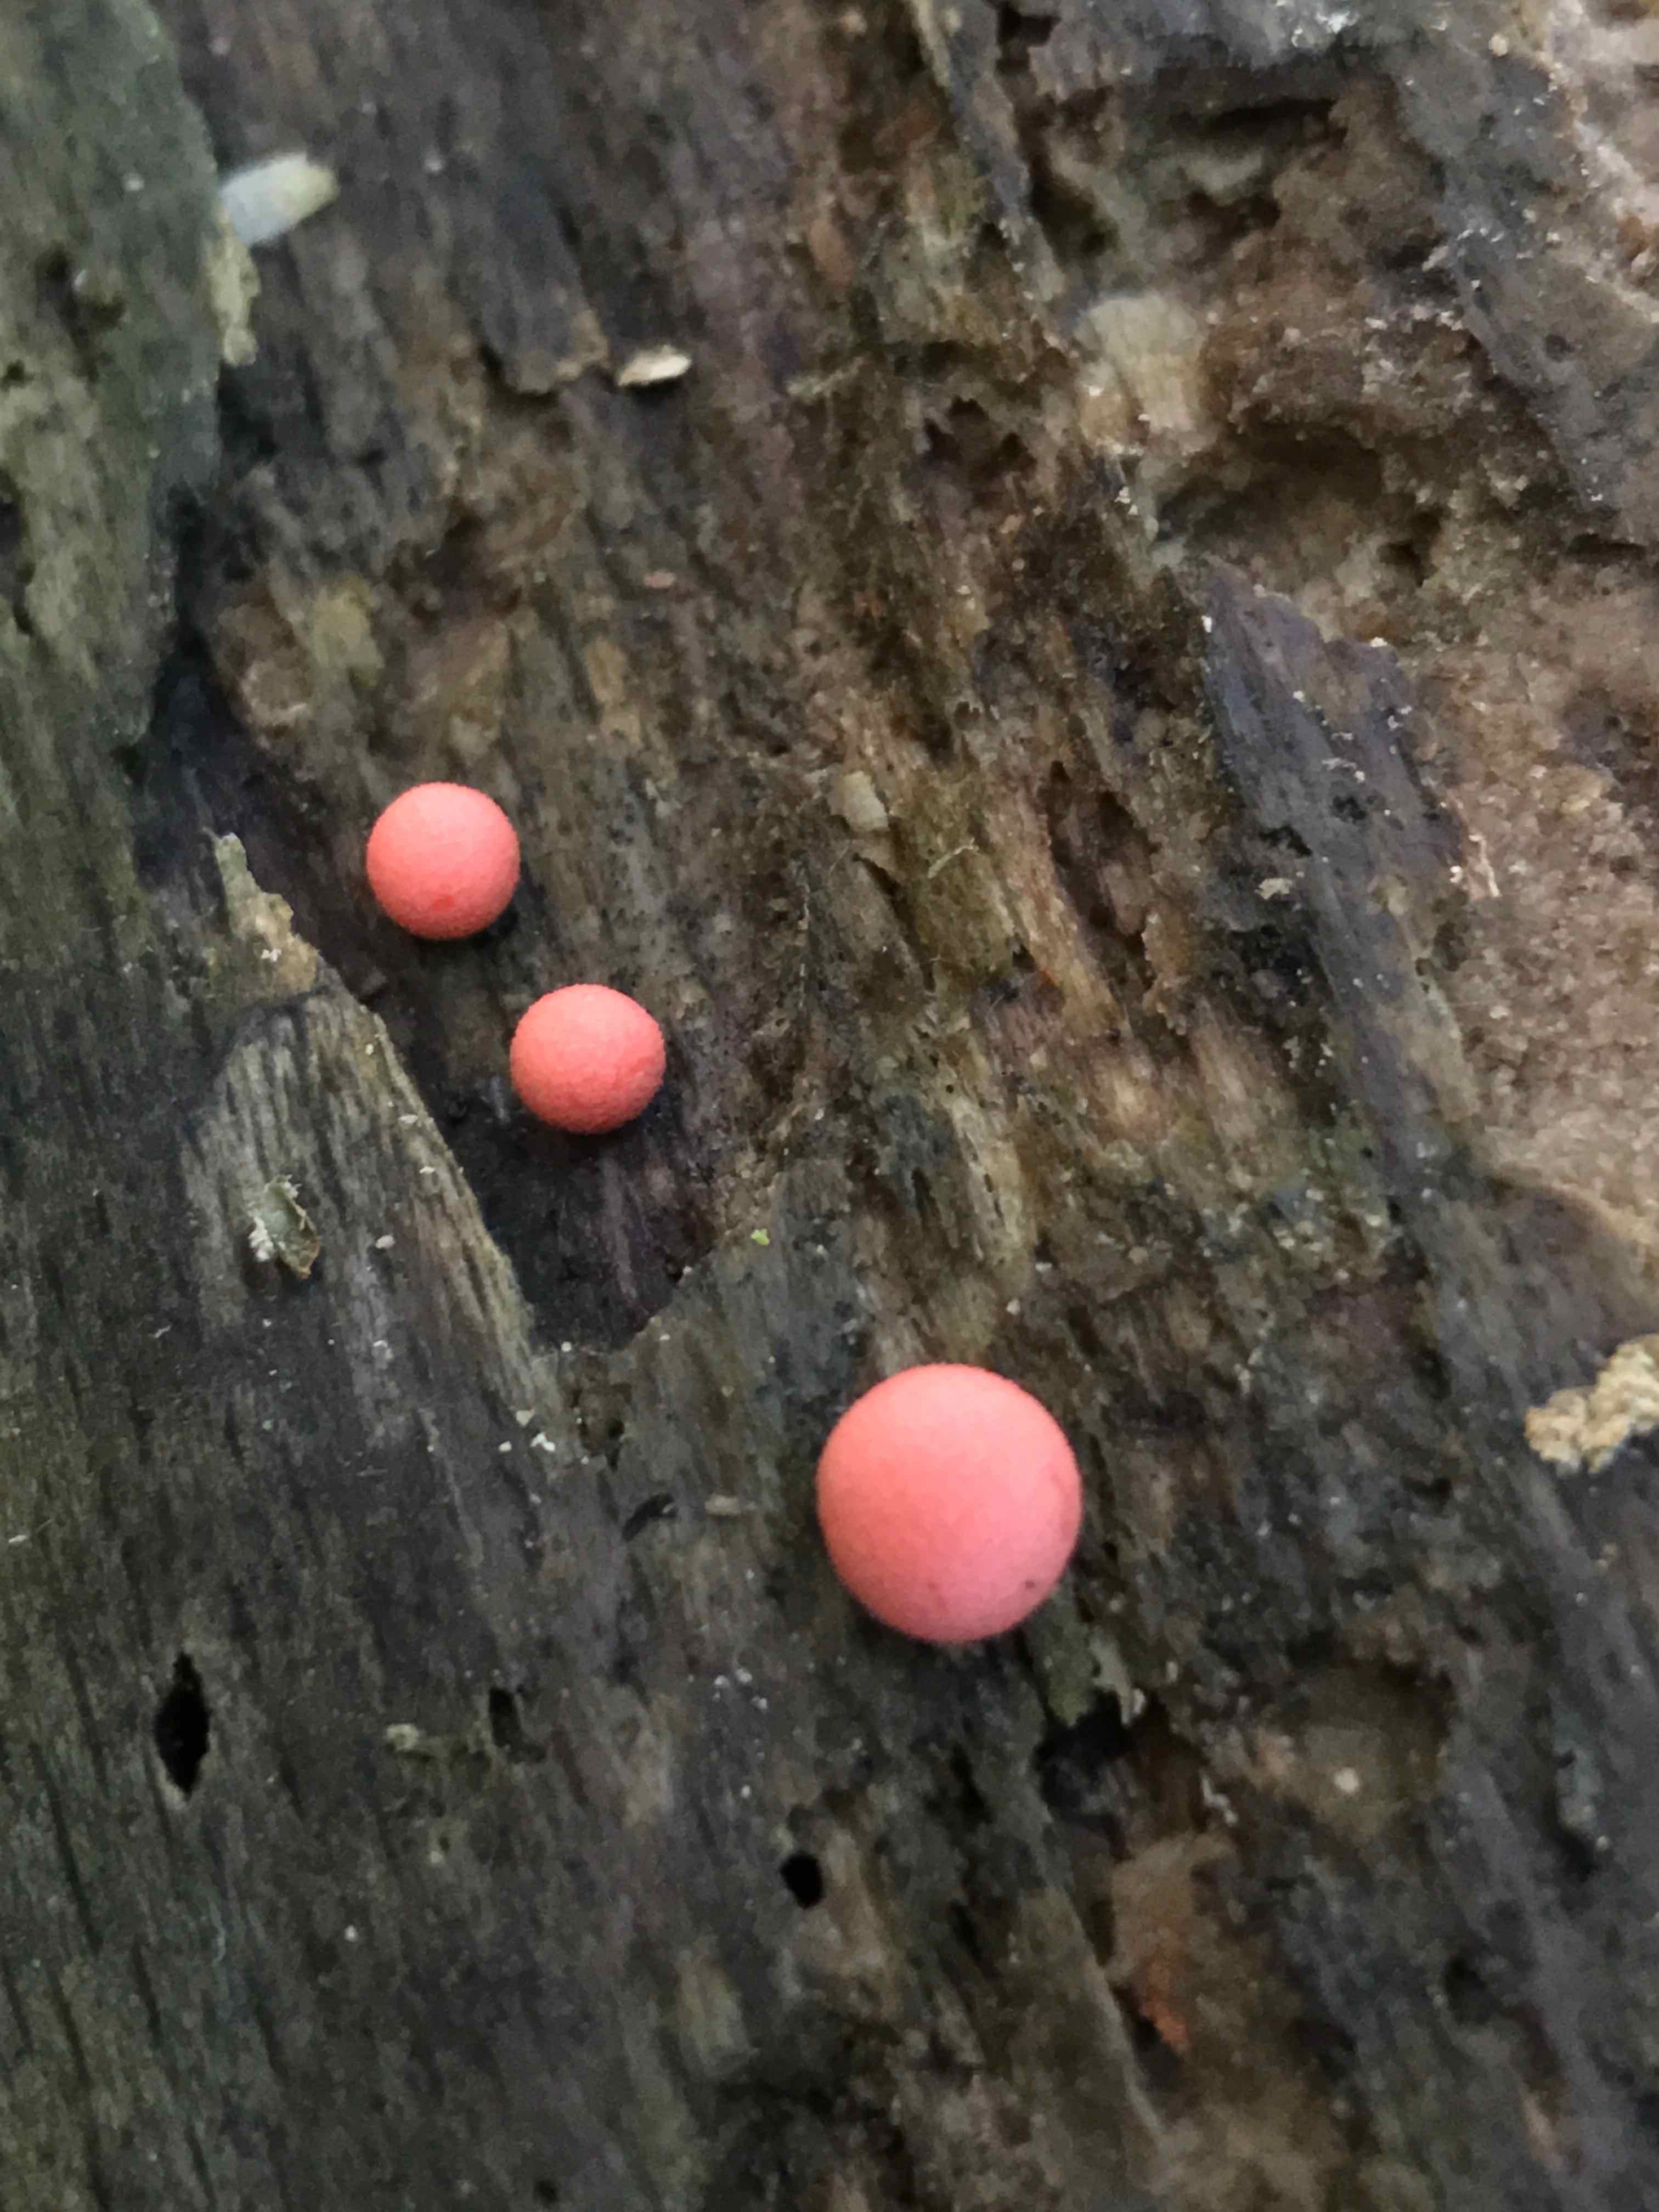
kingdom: Protozoa
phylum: Mycetozoa
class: Myxomycetes
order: Cribrariales
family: Tubiferaceae
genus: Lycogala
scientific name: Lycogala epidendrum
